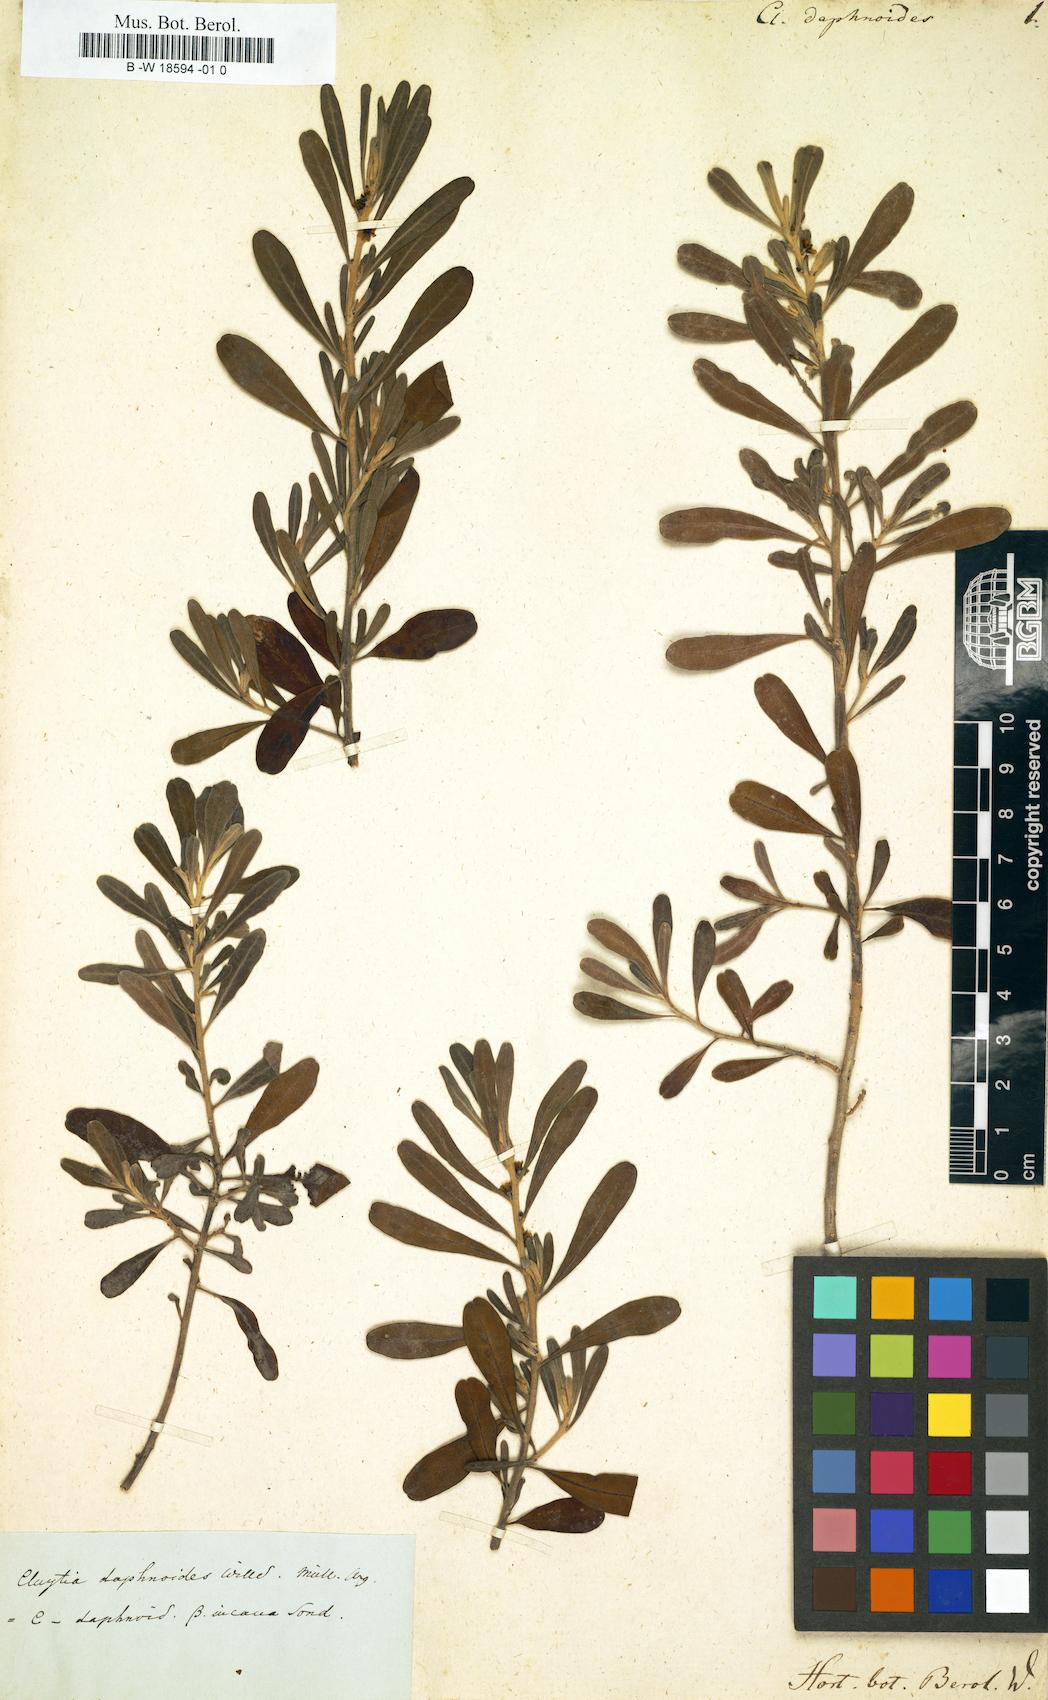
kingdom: Plantae
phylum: Tracheophyta
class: Magnoliopsida
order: Malpighiales
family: Peraceae
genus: Clutia
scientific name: Clutia
